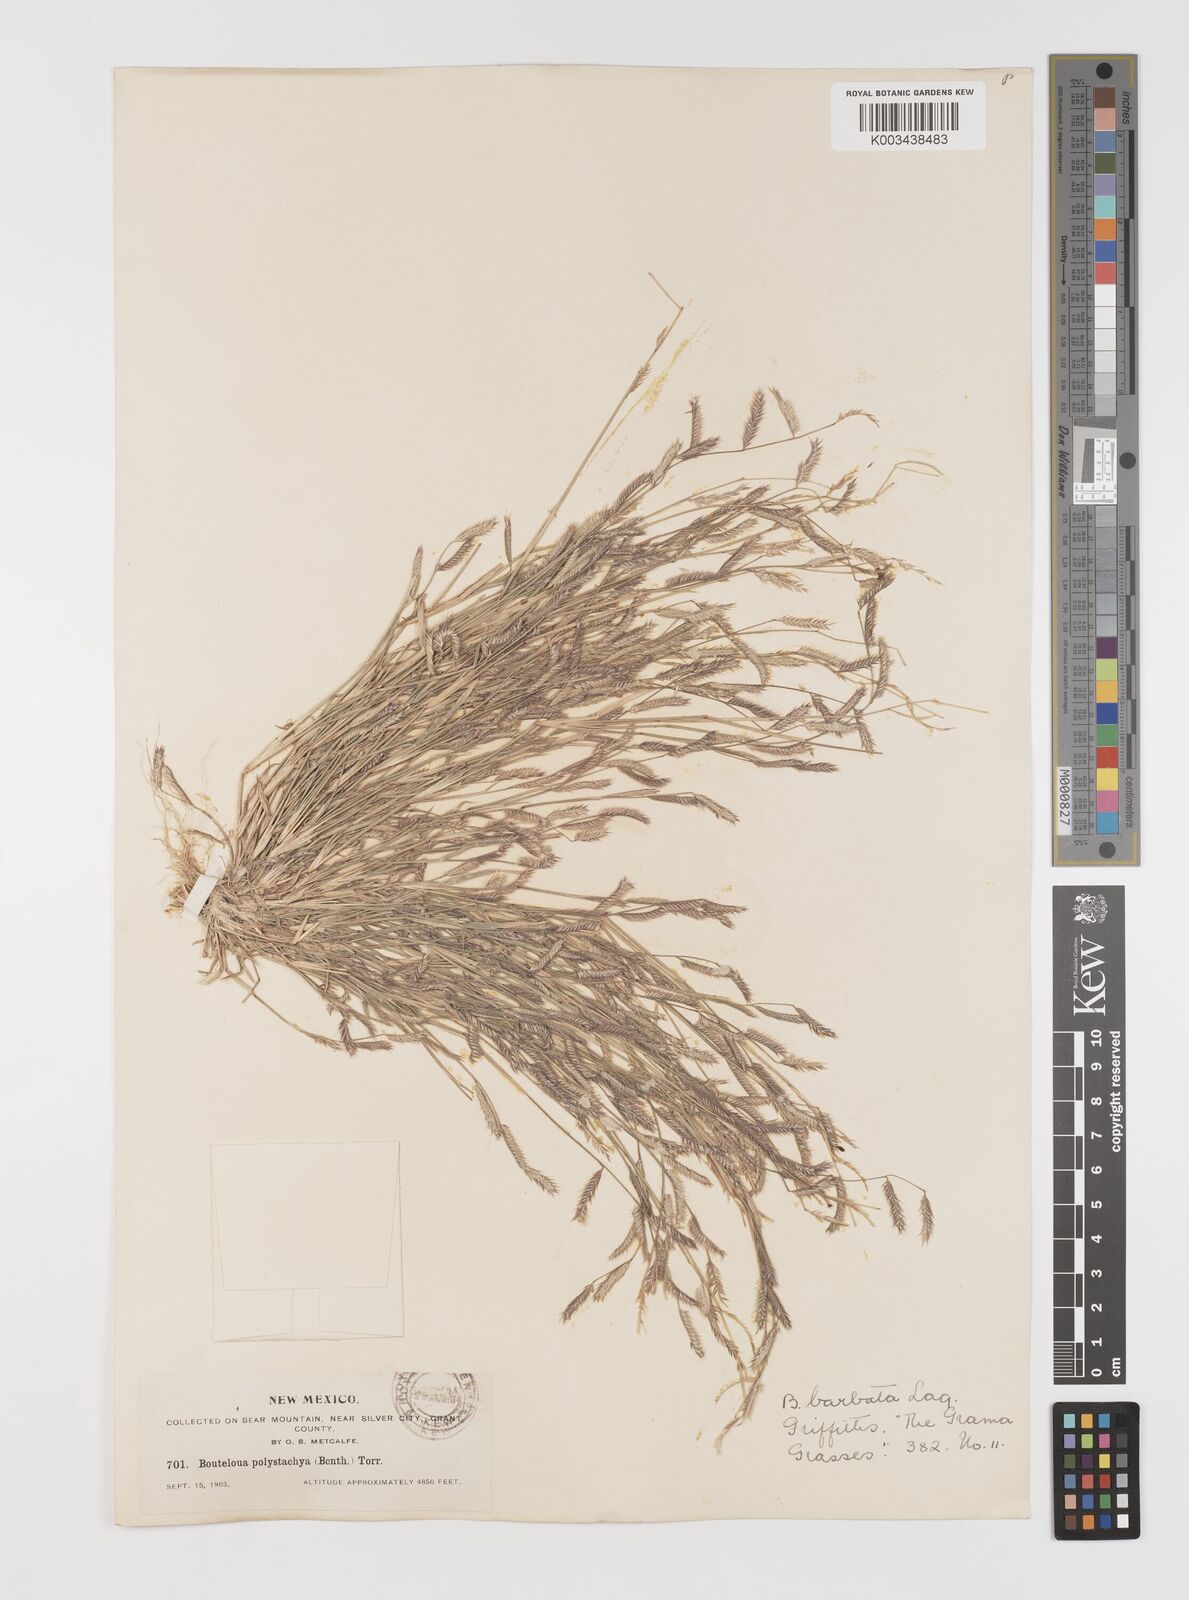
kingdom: Plantae
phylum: Tracheophyta
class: Liliopsida
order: Poales
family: Poaceae
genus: Bouteloua
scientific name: Bouteloua
